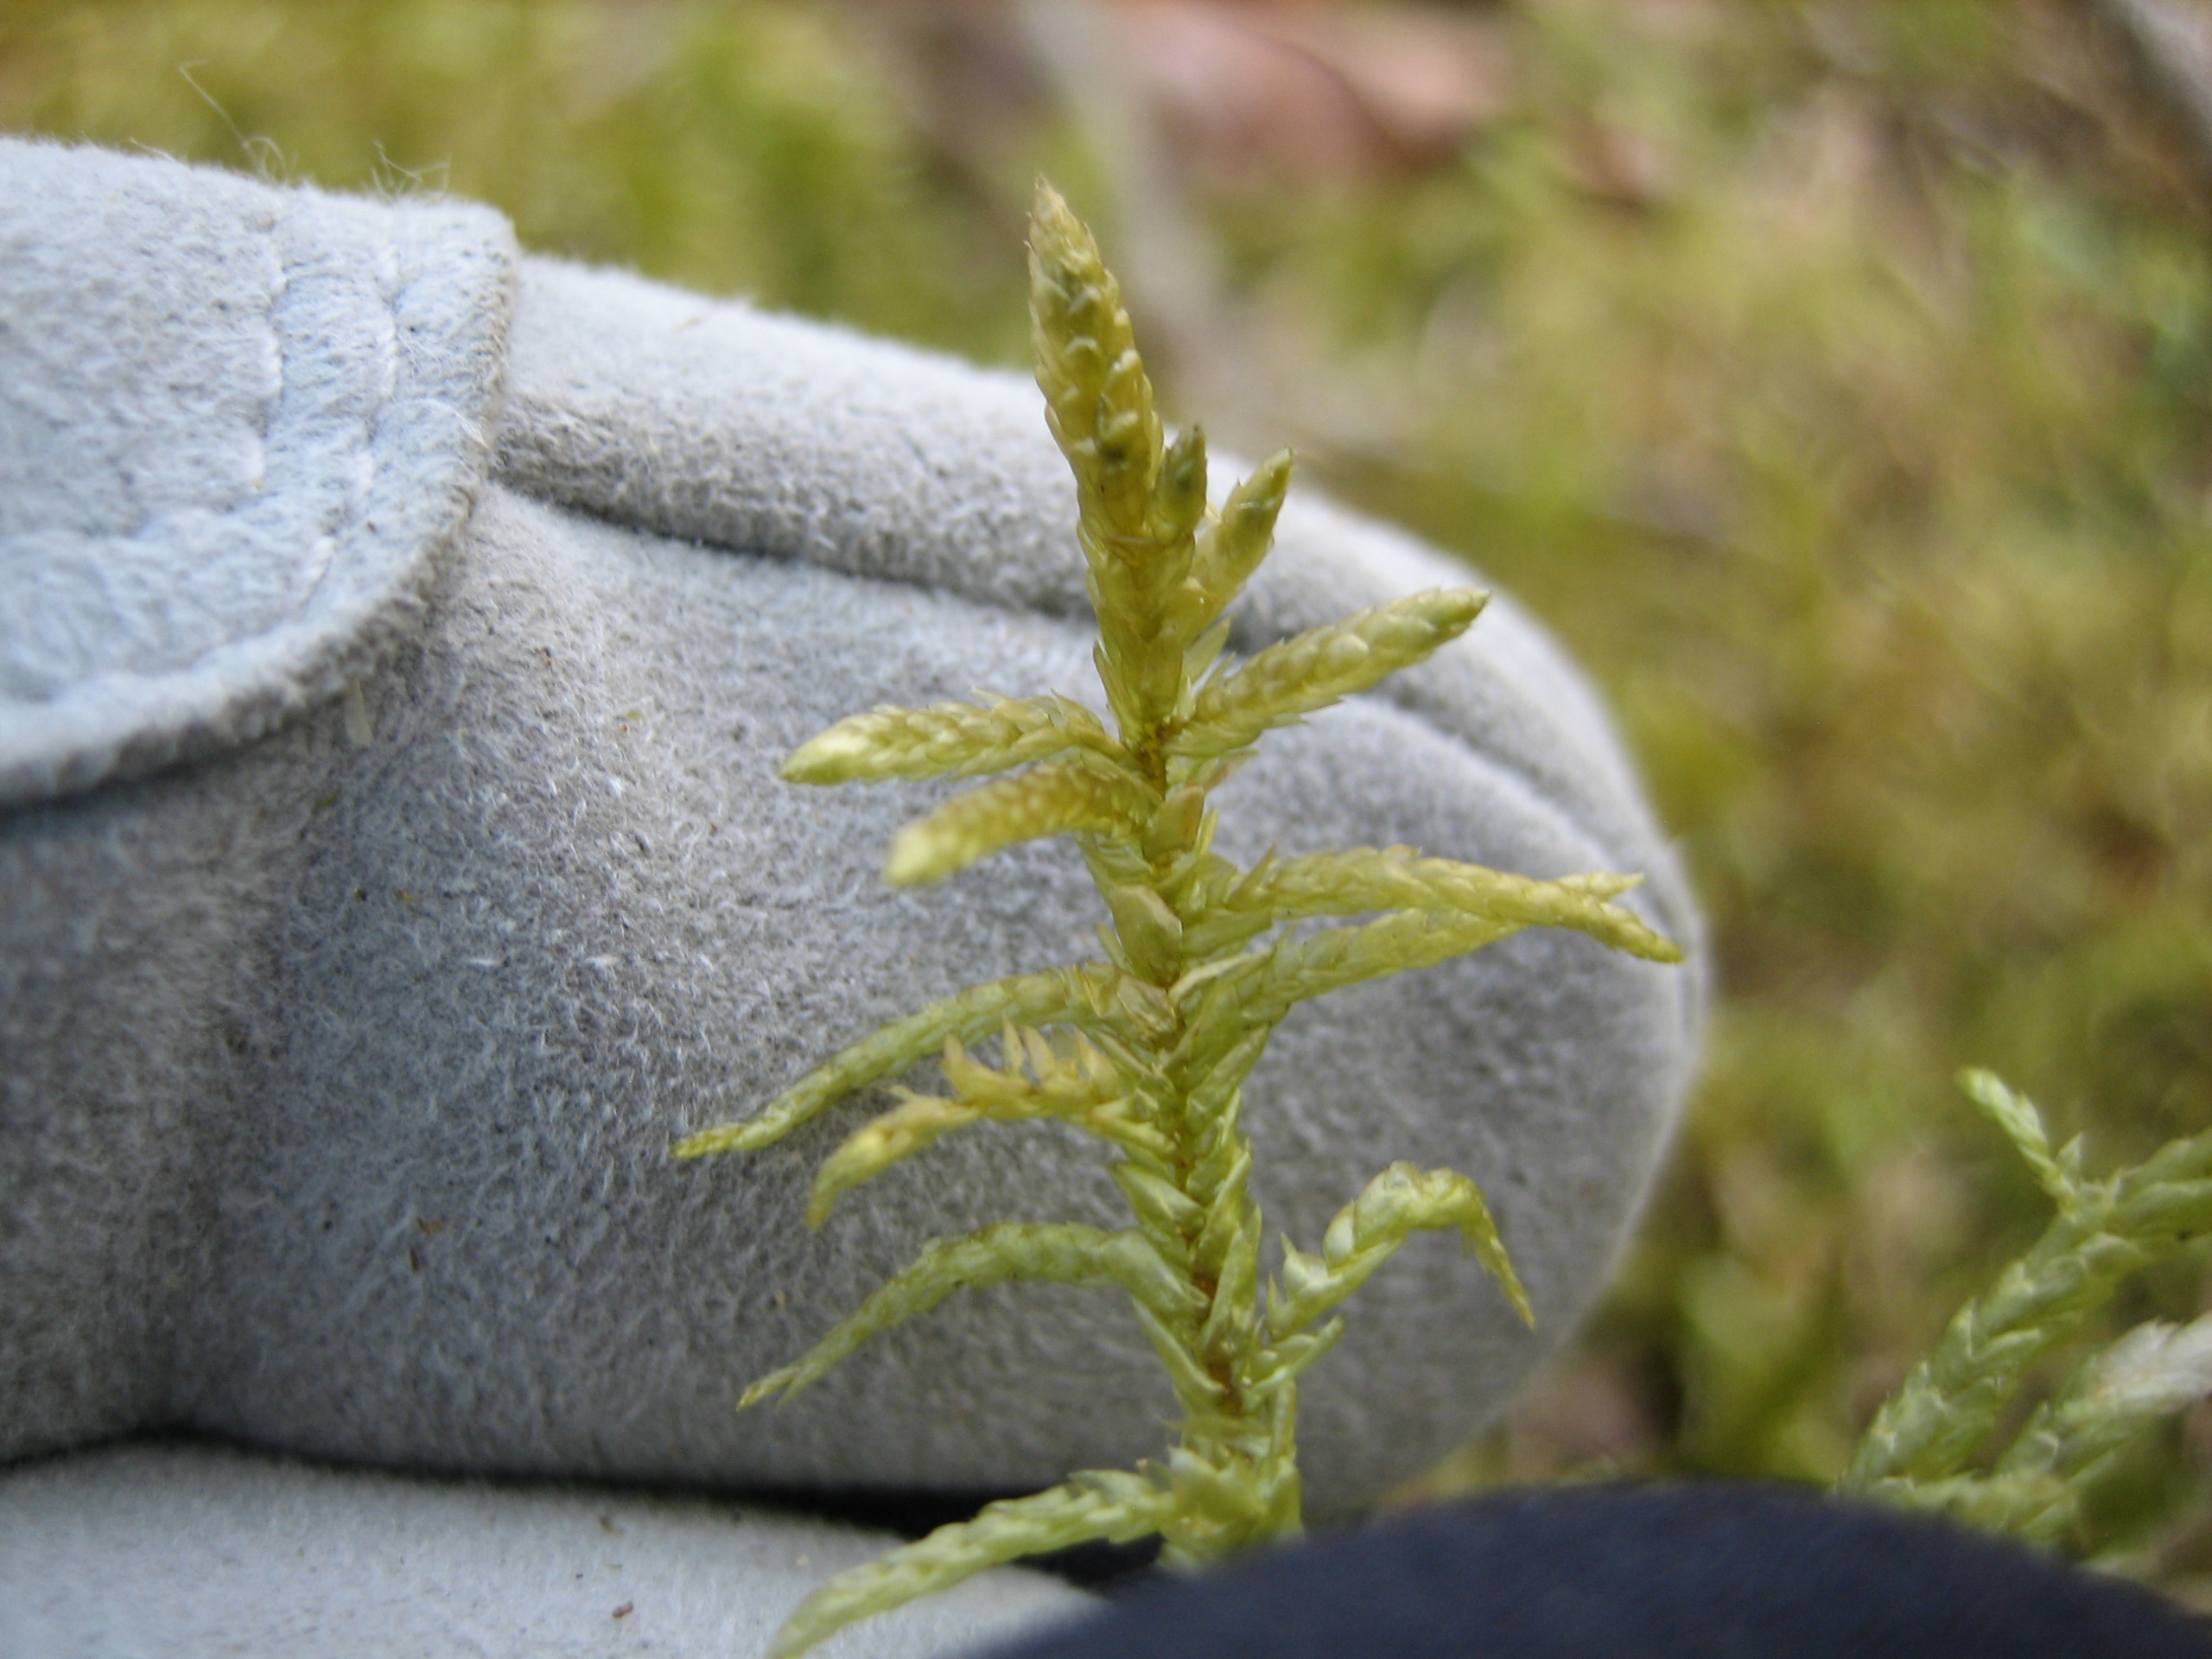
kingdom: Plantae
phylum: Bryophyta
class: Bryopsida
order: Hypnales
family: Brachytheciaceae
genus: Pseudoscleropodium
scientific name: Pseudoscleropodium purum
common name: Hulbladet fedtmos
